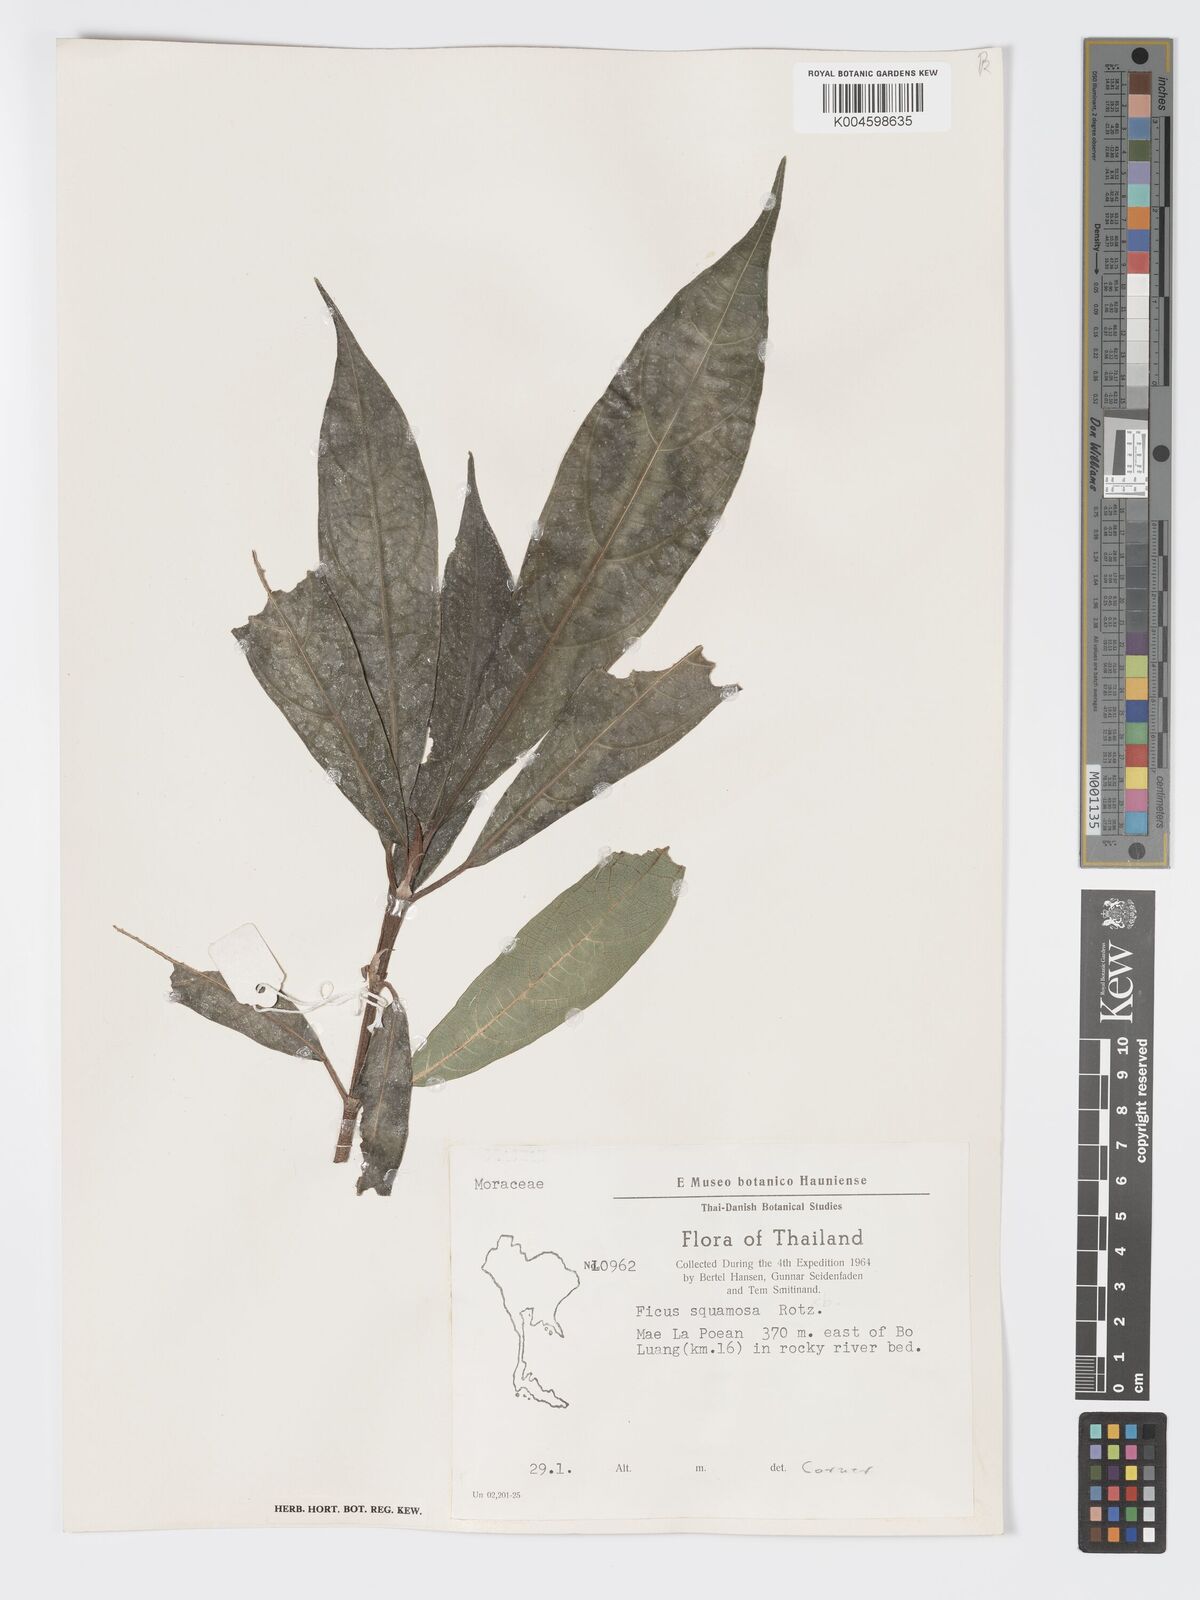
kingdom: Plantae
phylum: Tracheophyta
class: Magnoliopsida
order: Rosales
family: Moraceae
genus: Ficus
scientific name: Ficus squamosa
